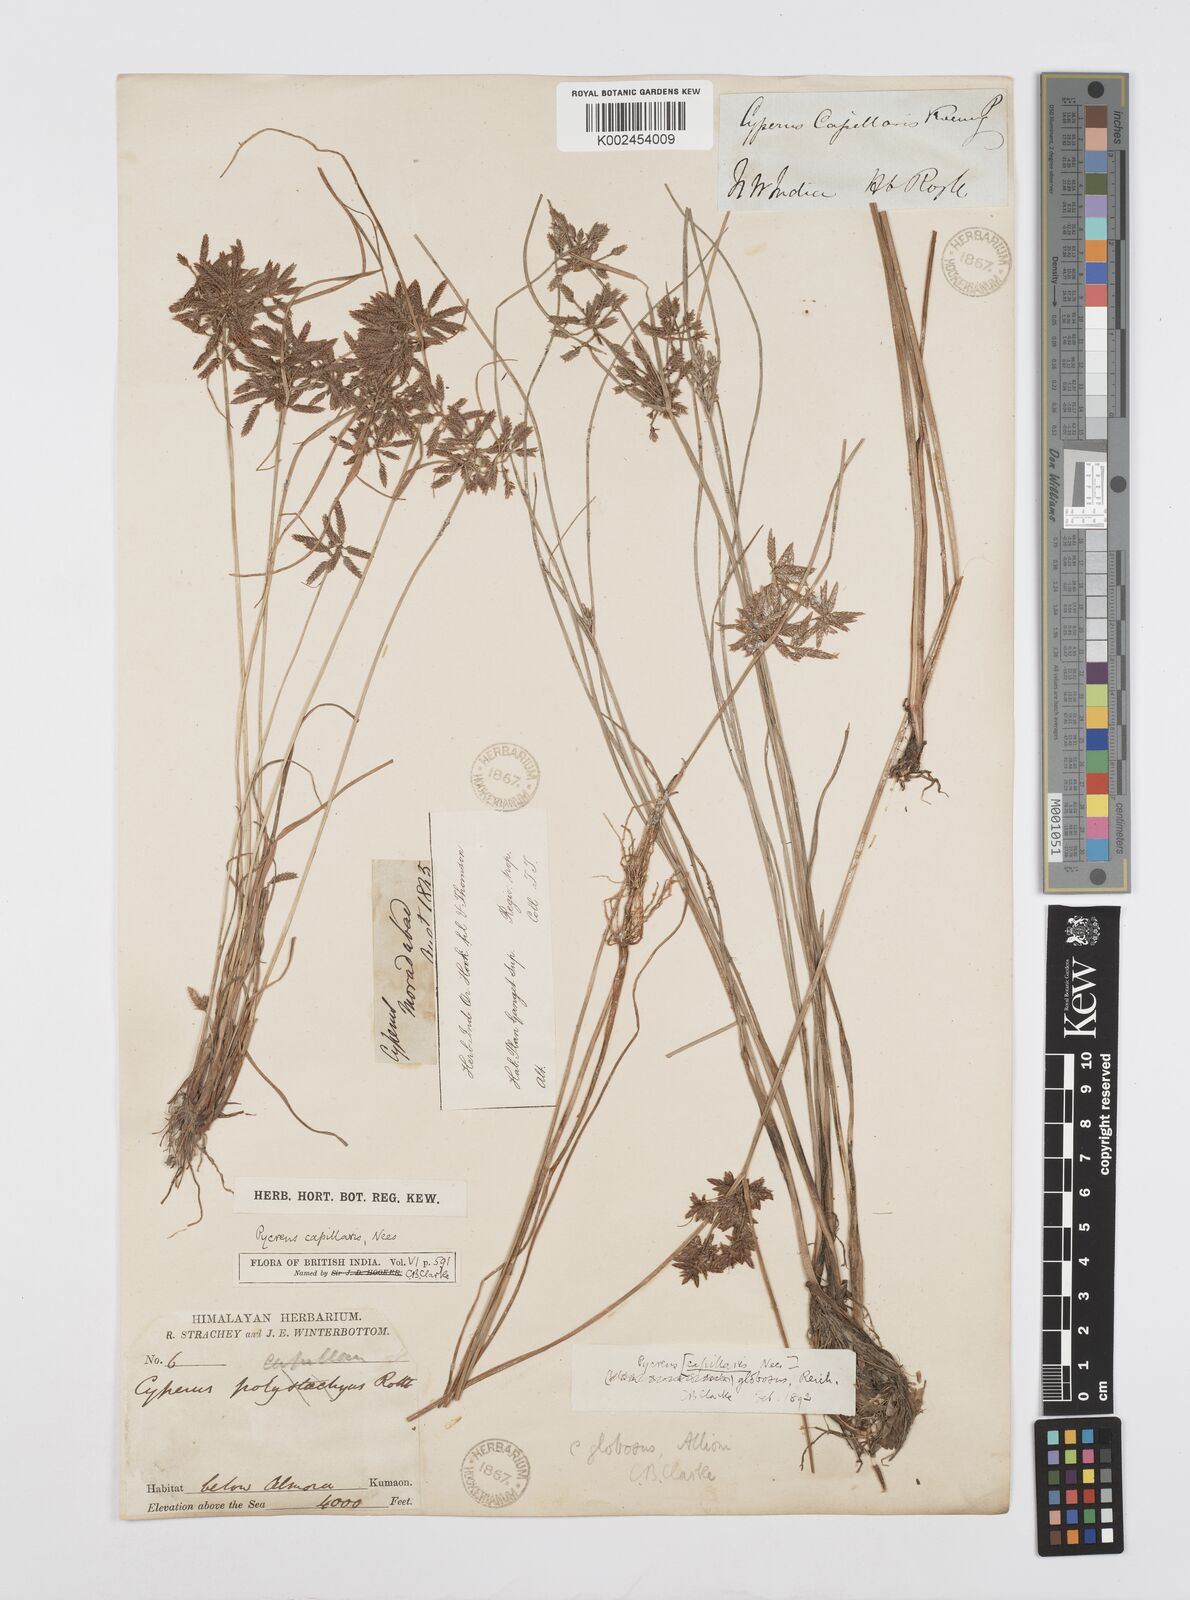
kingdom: Plantae
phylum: Tracheophyta
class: Liliopsida
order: Poales
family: Cyperaceae
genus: Cyperus
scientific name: Cyperus flavidus
